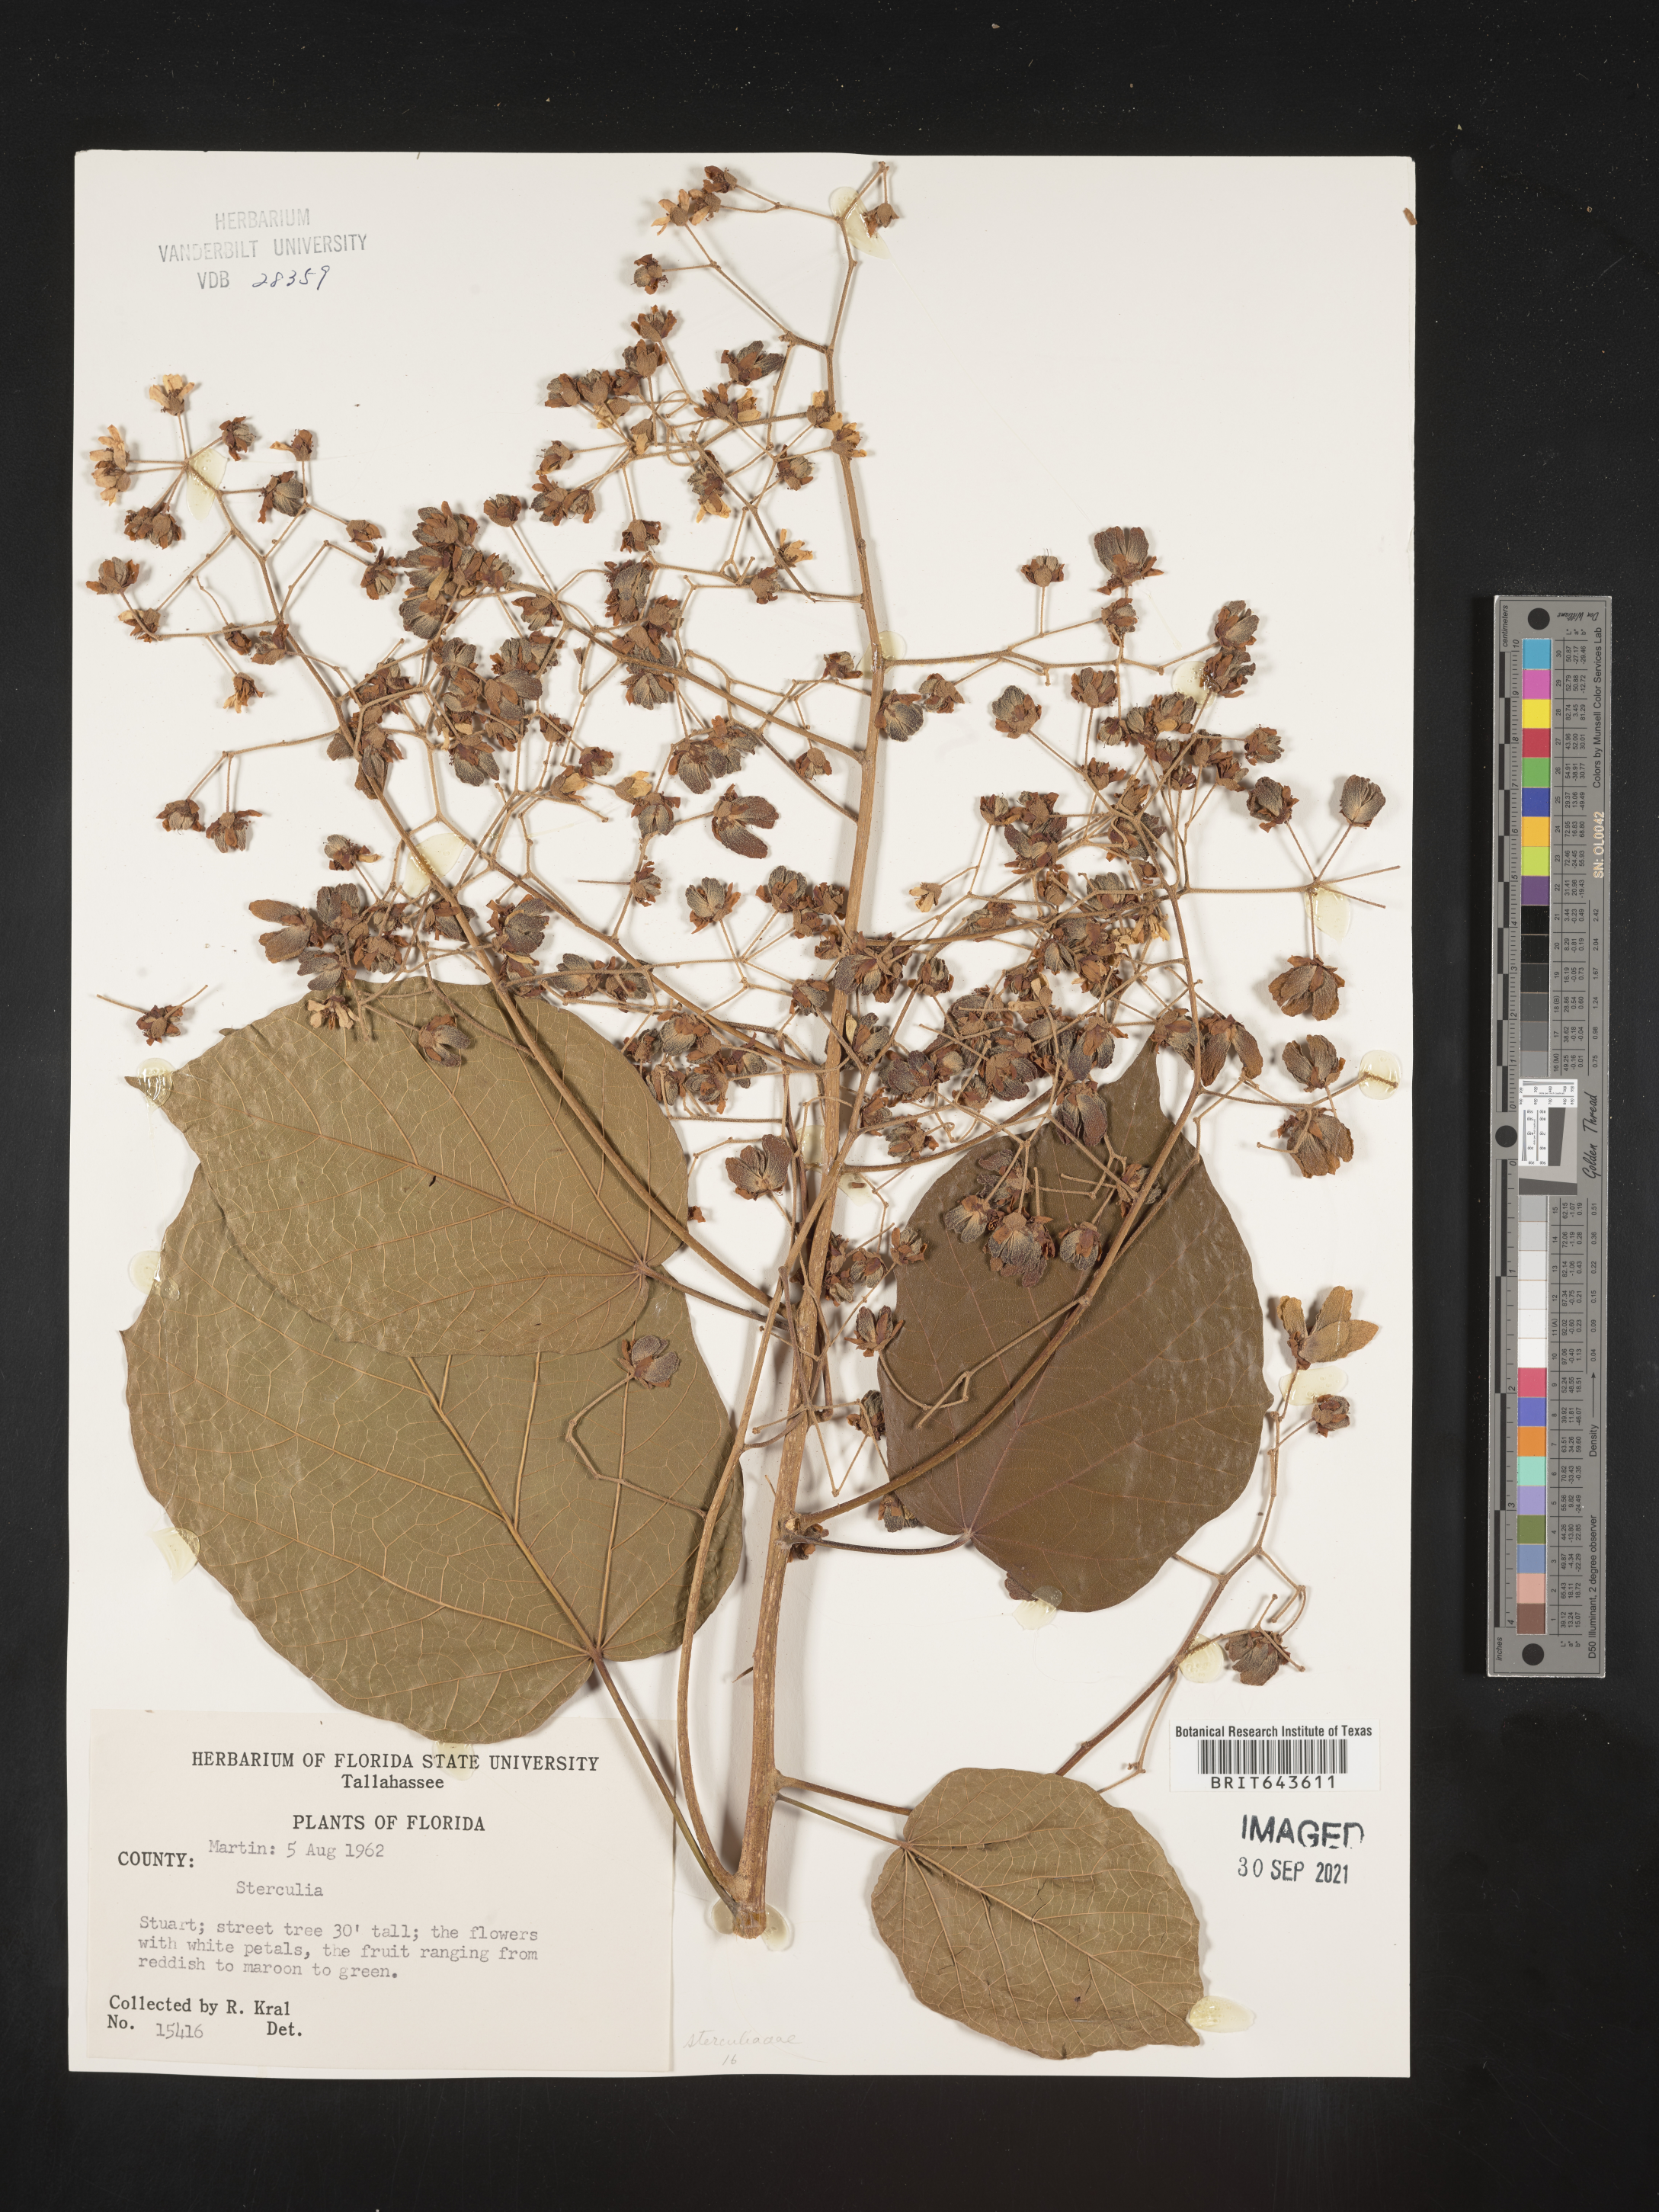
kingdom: Plantae
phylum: Tracheophyta
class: Magnoliopsida
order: Malvales
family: Malvaceae
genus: Sterculia
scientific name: Sterculia
